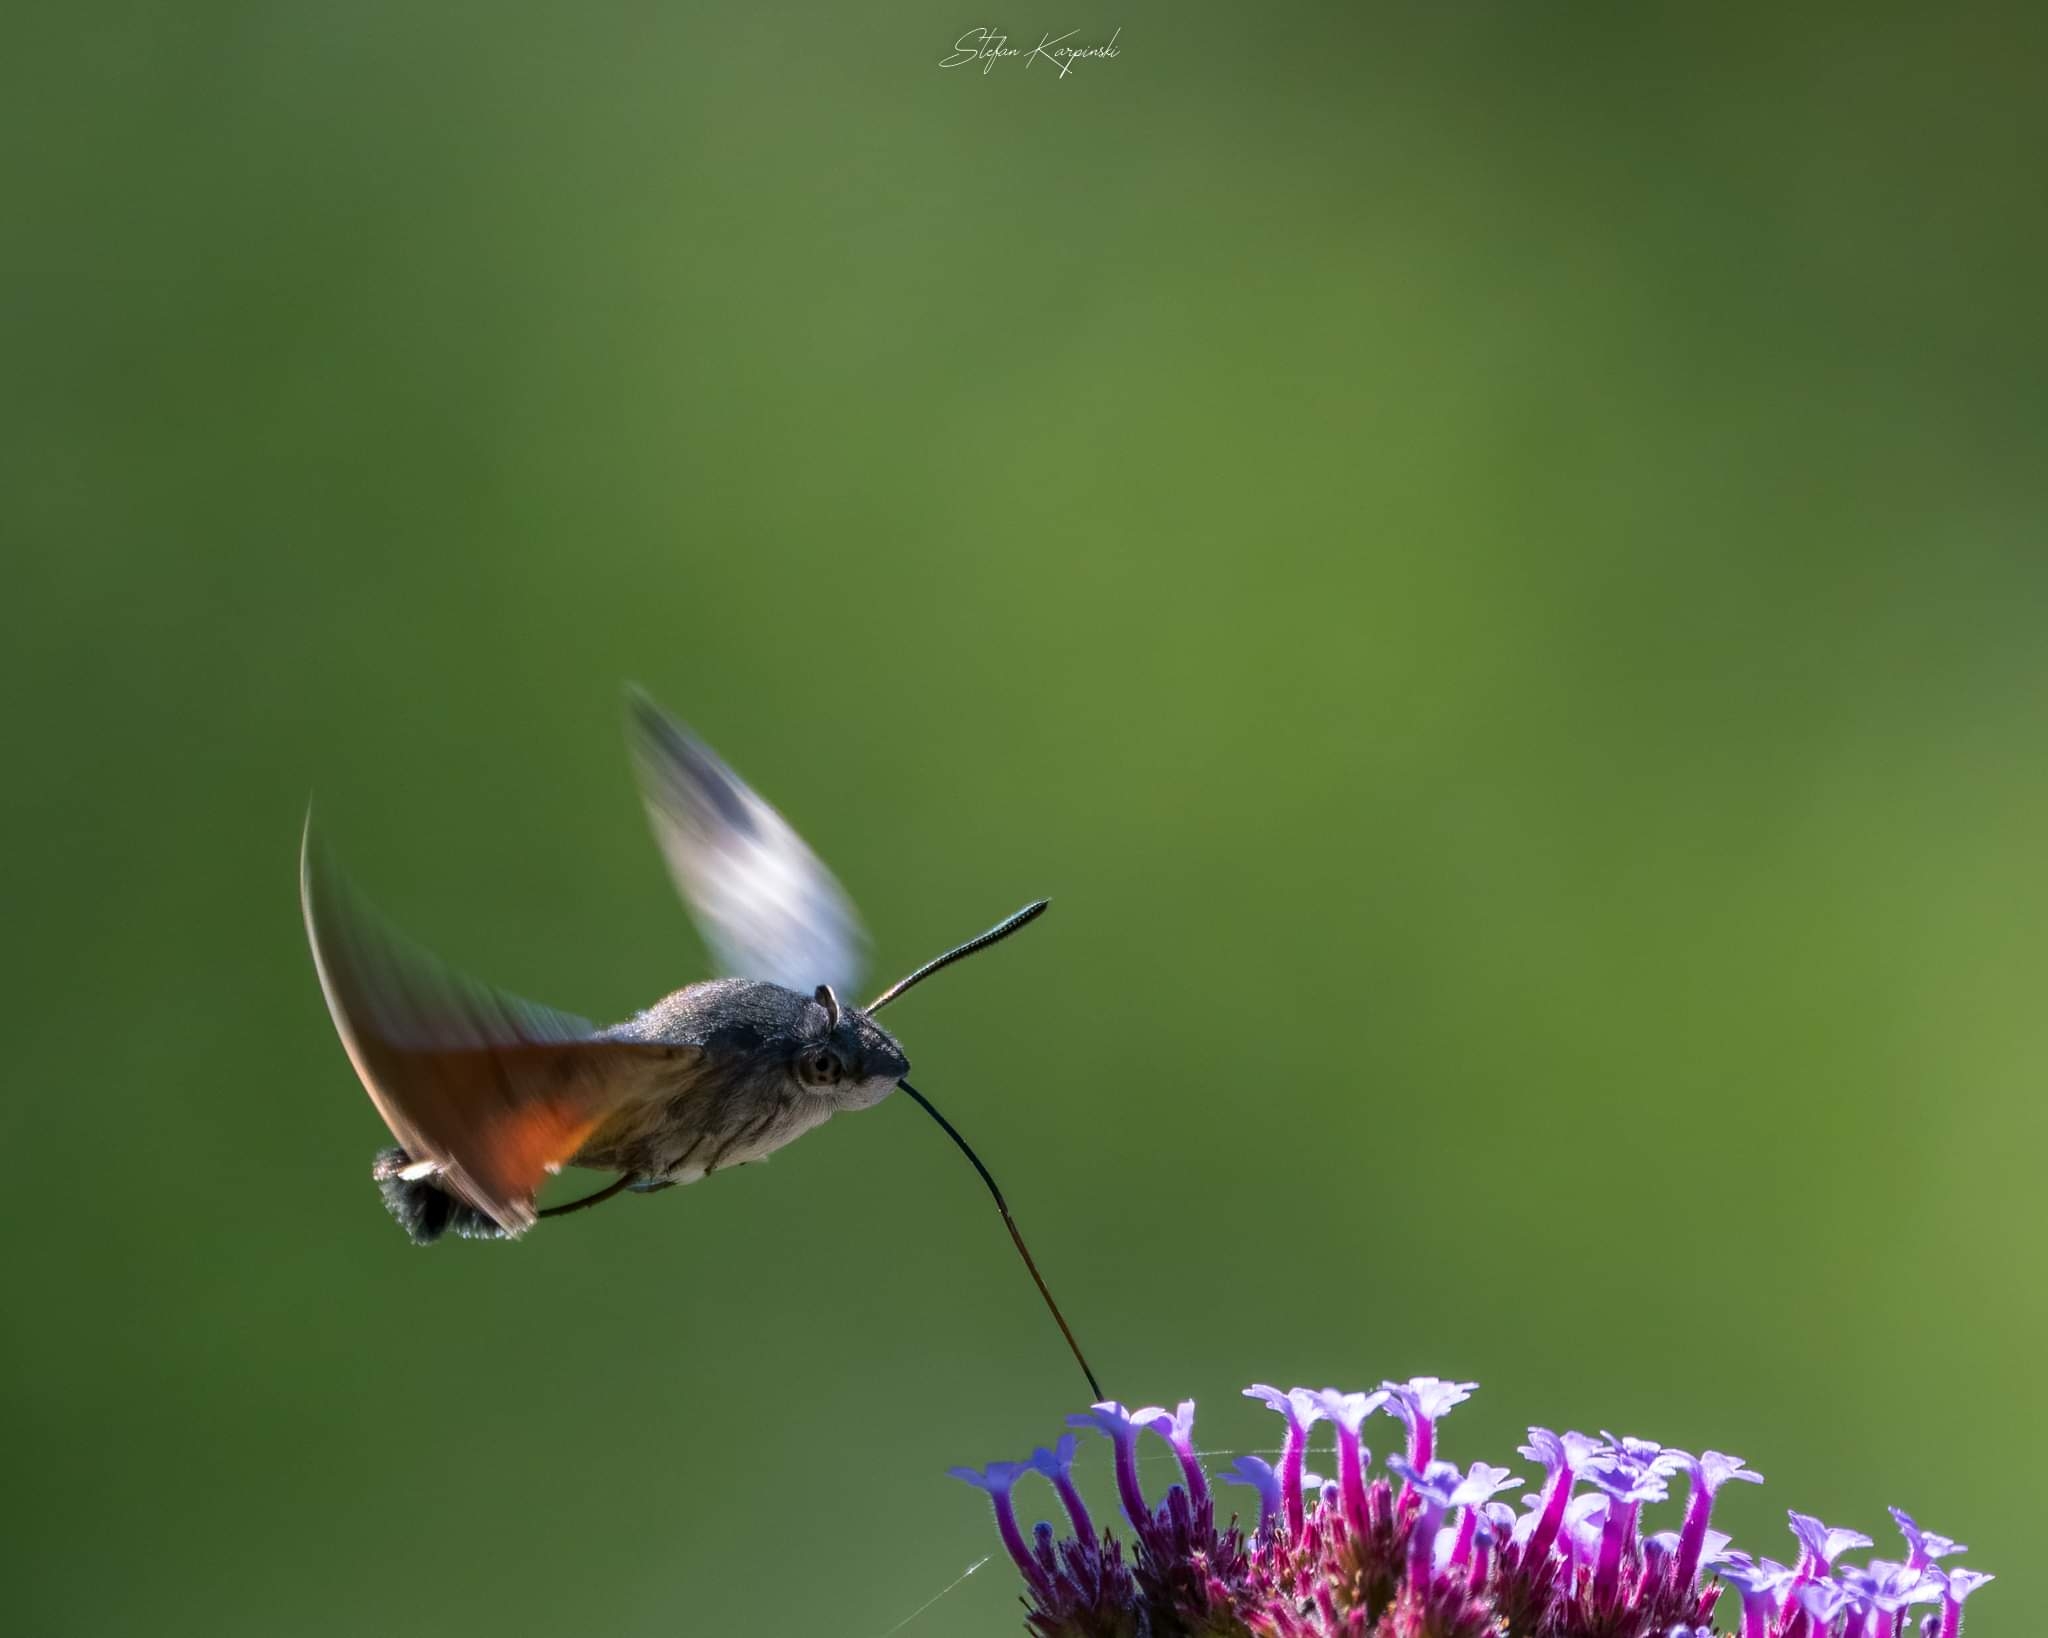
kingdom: Animalia
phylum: Arthropoda
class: Insecta
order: Lepidoptera
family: Sphingidae
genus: Macroglossum
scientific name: Macroglossum stellatarum
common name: Duehale
